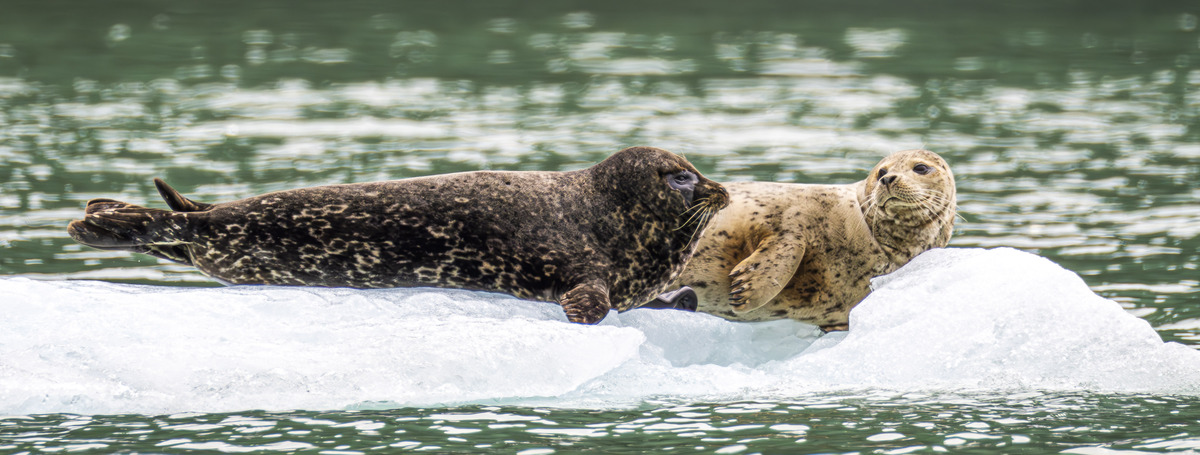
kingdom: Animalia
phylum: Chordata
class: Mammalia
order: Carnivora
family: Phocidae
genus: Phoca
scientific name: Phoca vitulina
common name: Harbor seal
